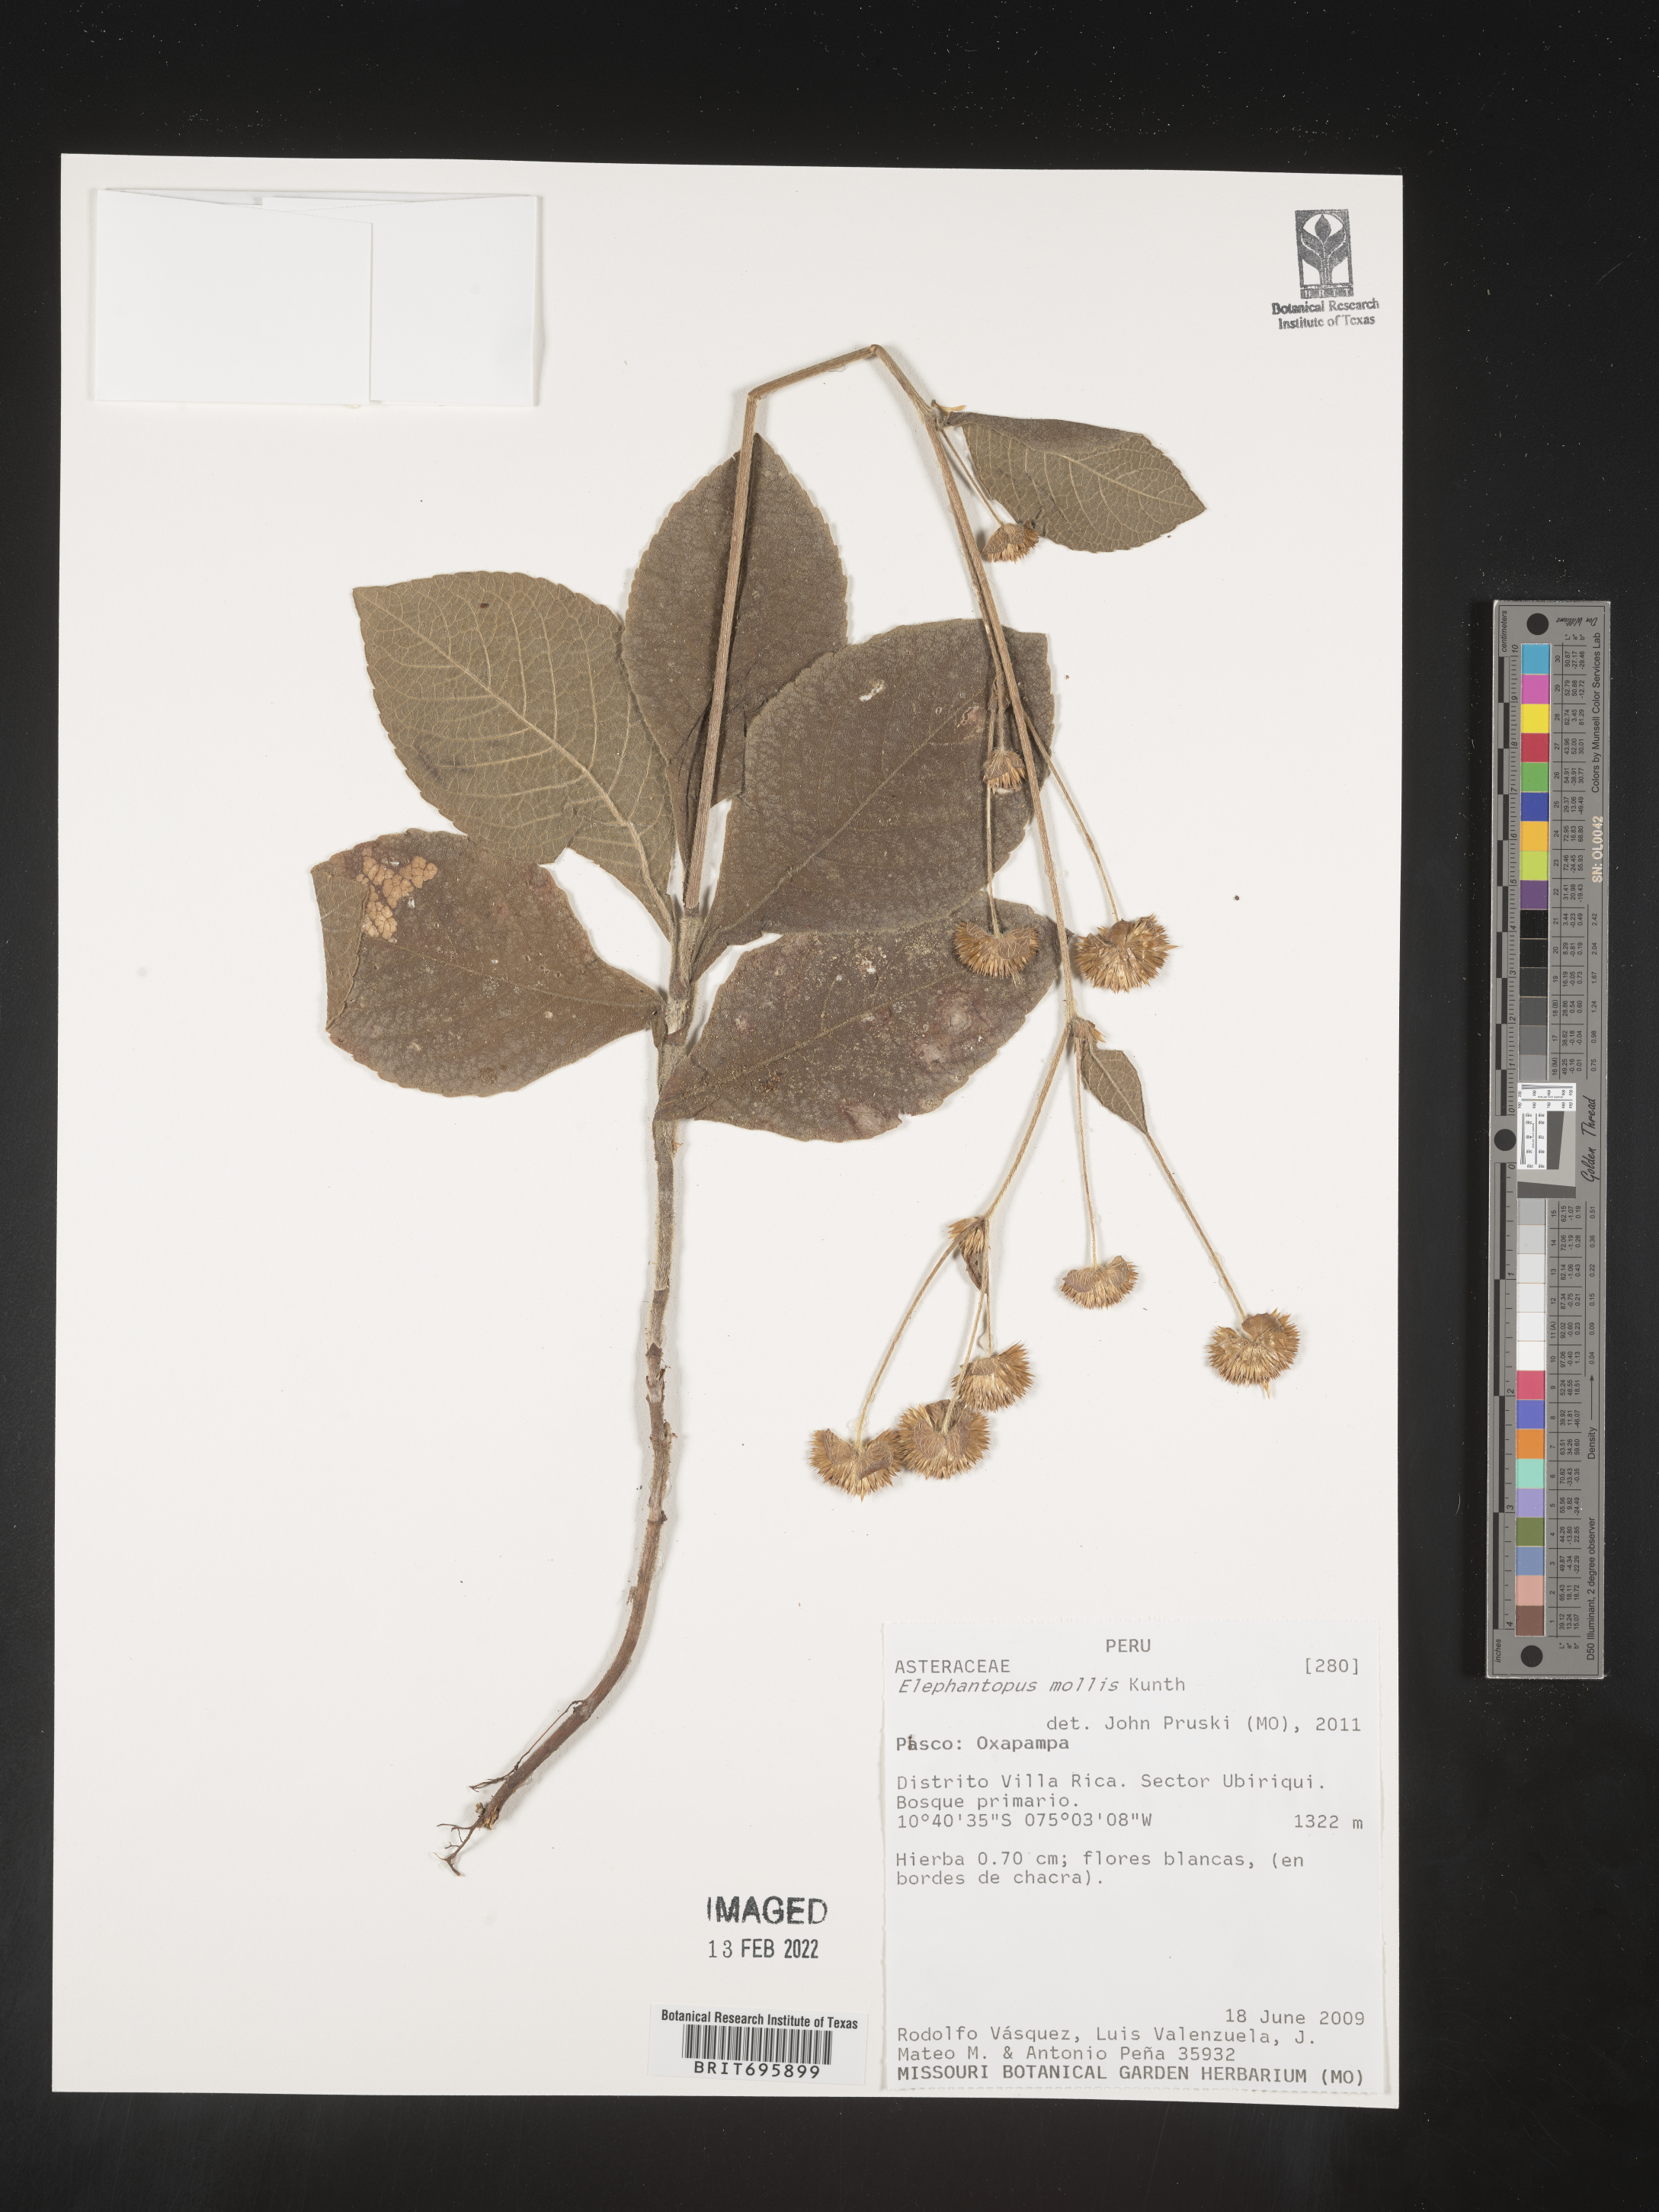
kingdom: Plantae
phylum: Tracheophyta
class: Magnoliopsida
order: Asterales
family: Asteraceae
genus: Elephantopus
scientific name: Elephantopus
